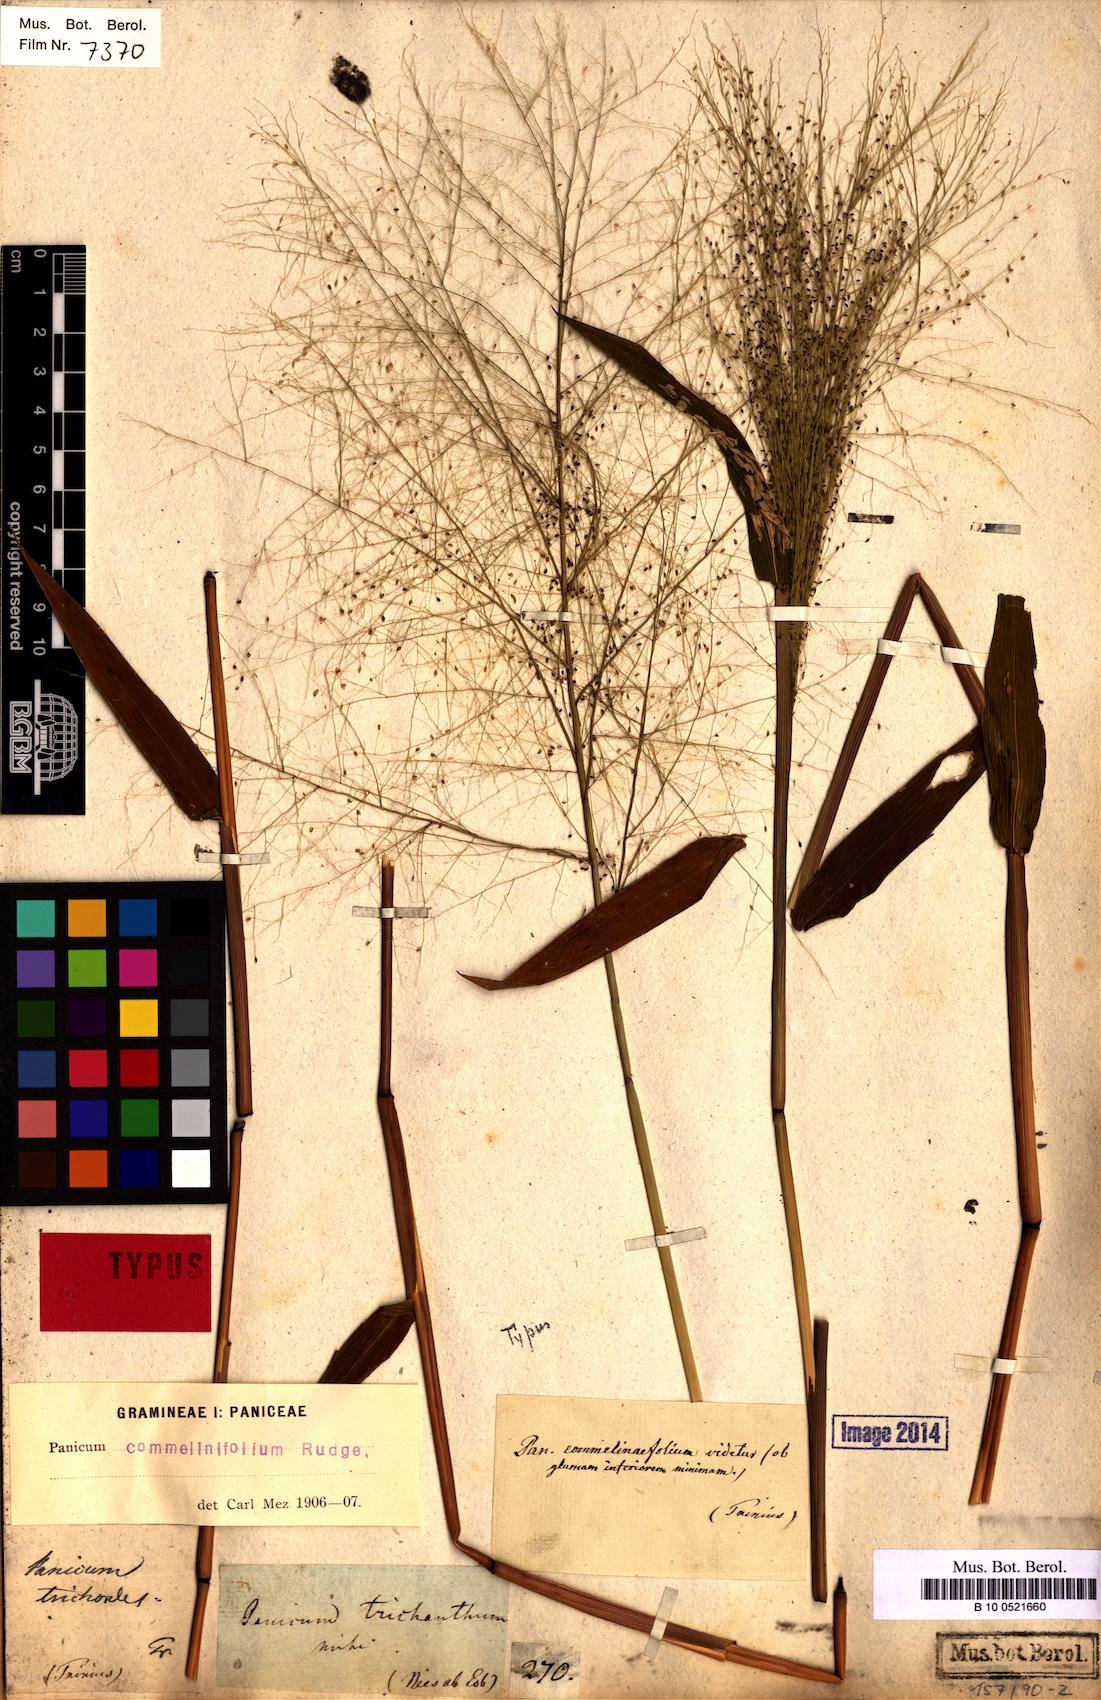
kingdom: Plantae
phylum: Tracheophyta
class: Liliopsida
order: Poales
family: Poaceae
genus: Panicum
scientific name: Panicum trichanthum
